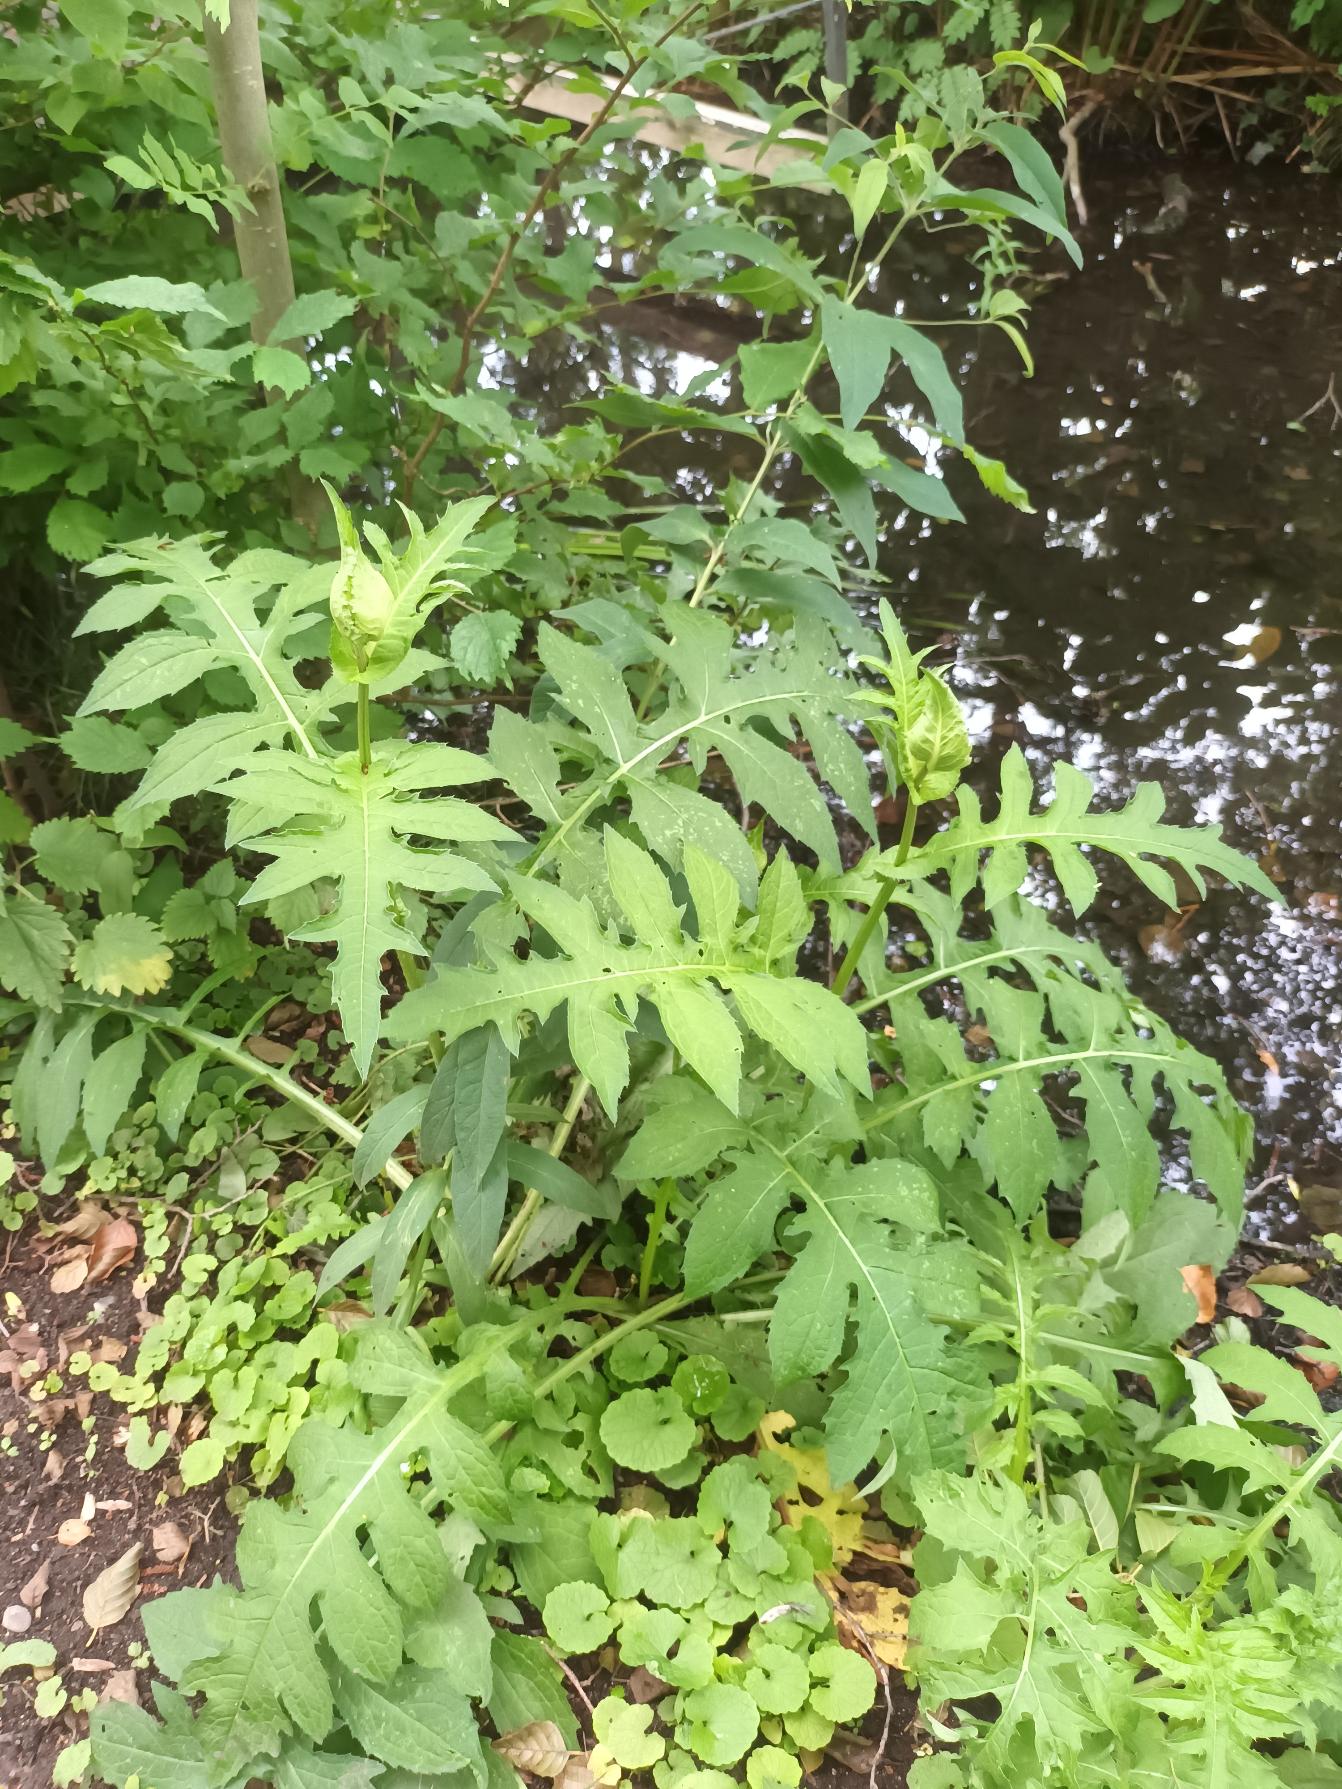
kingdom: Plantae
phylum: Tracheophyta
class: Magnoliopsida
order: Asterales
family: Asteraceae
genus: Cirsium
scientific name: Cirsium oleraceum
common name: Kål-tidsel
